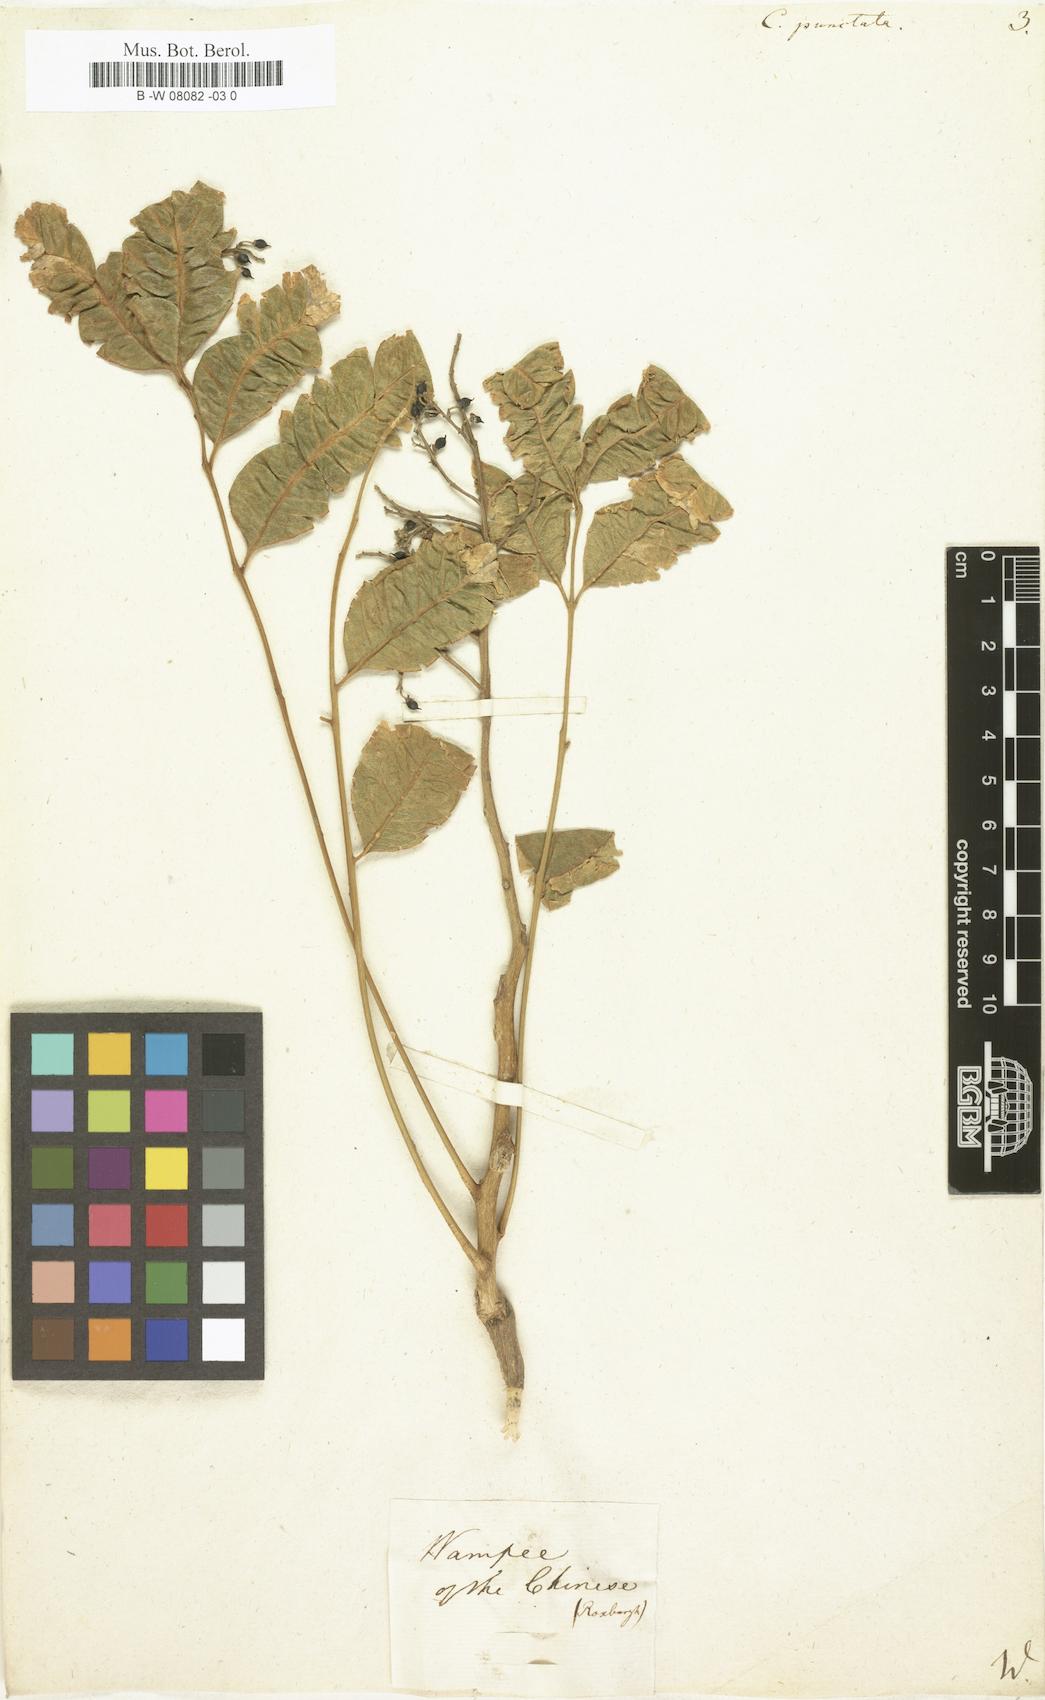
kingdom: Plantae
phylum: Tracheophyta
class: Magnoliopsida
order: Sapindales
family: Rutaceae
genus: Clausena
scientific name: Clausena lansium
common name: Wampi
